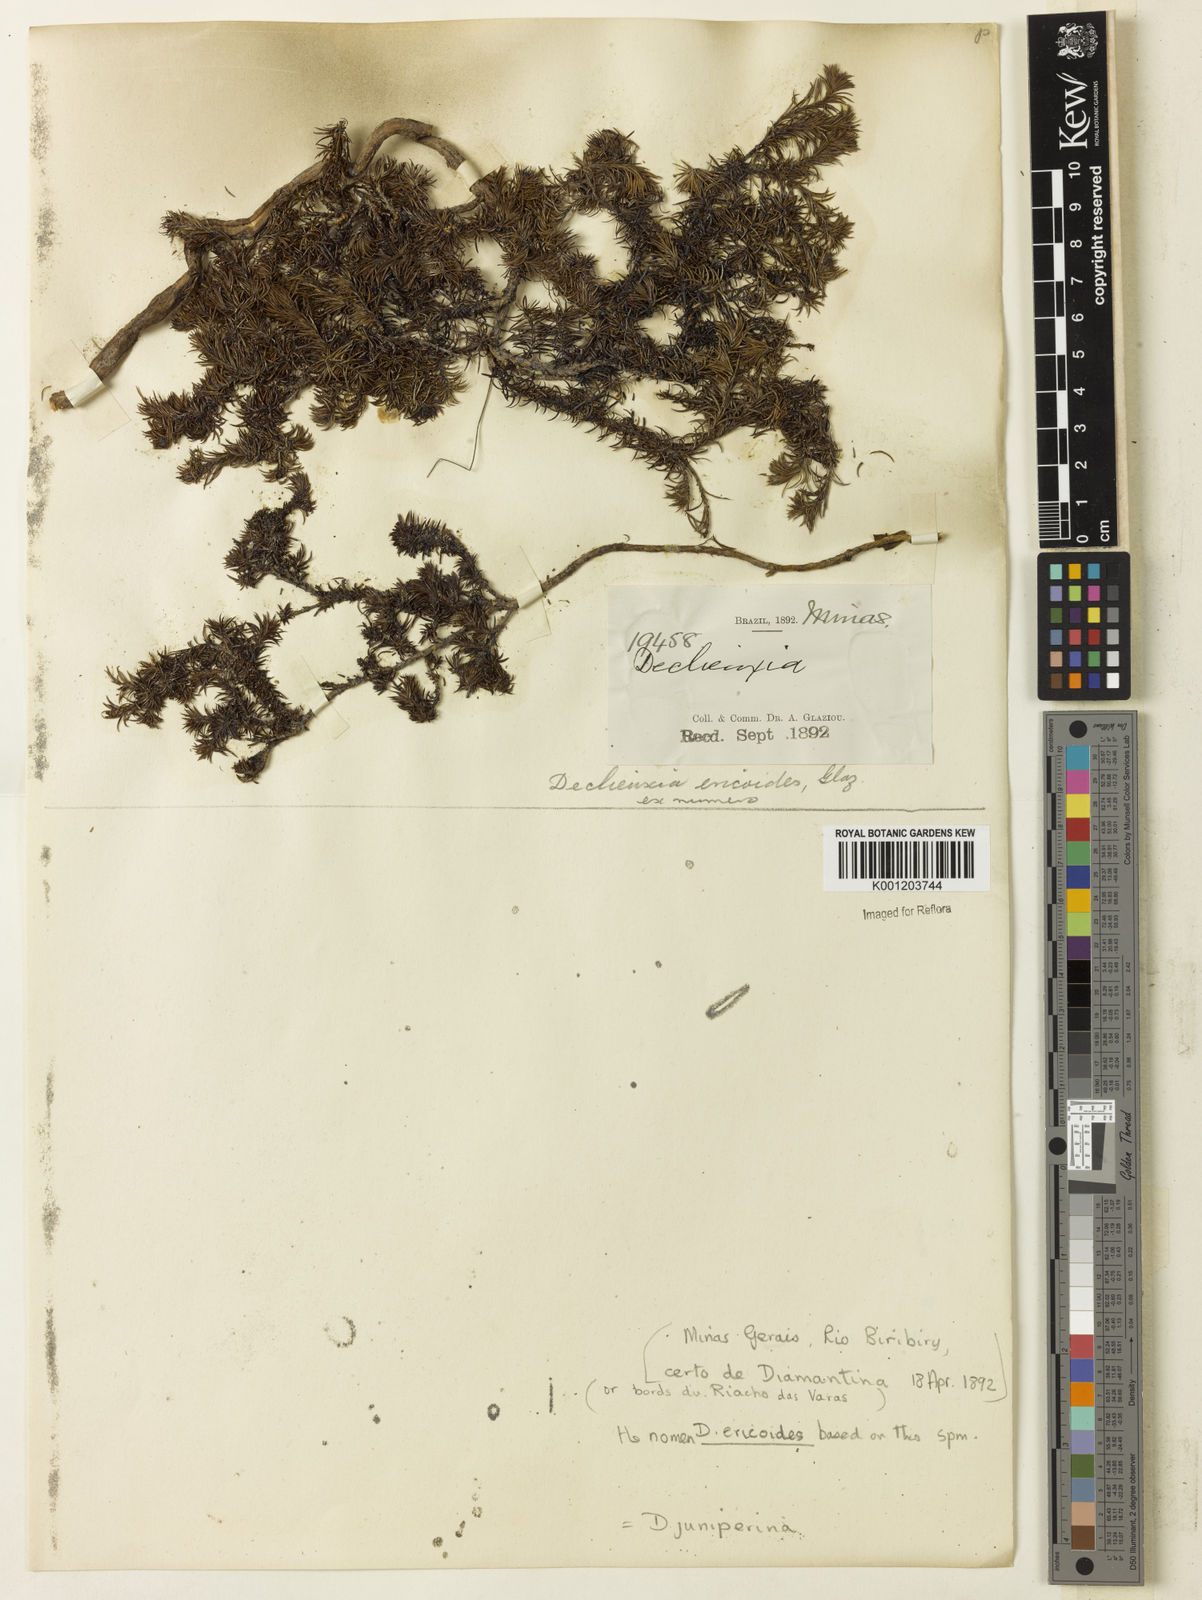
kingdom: Plantae
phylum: Tracheophyta
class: Magnoliopsida
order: Gentianales
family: Rubiaceae
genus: Declieuxia
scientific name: Declieuxia juniperina
